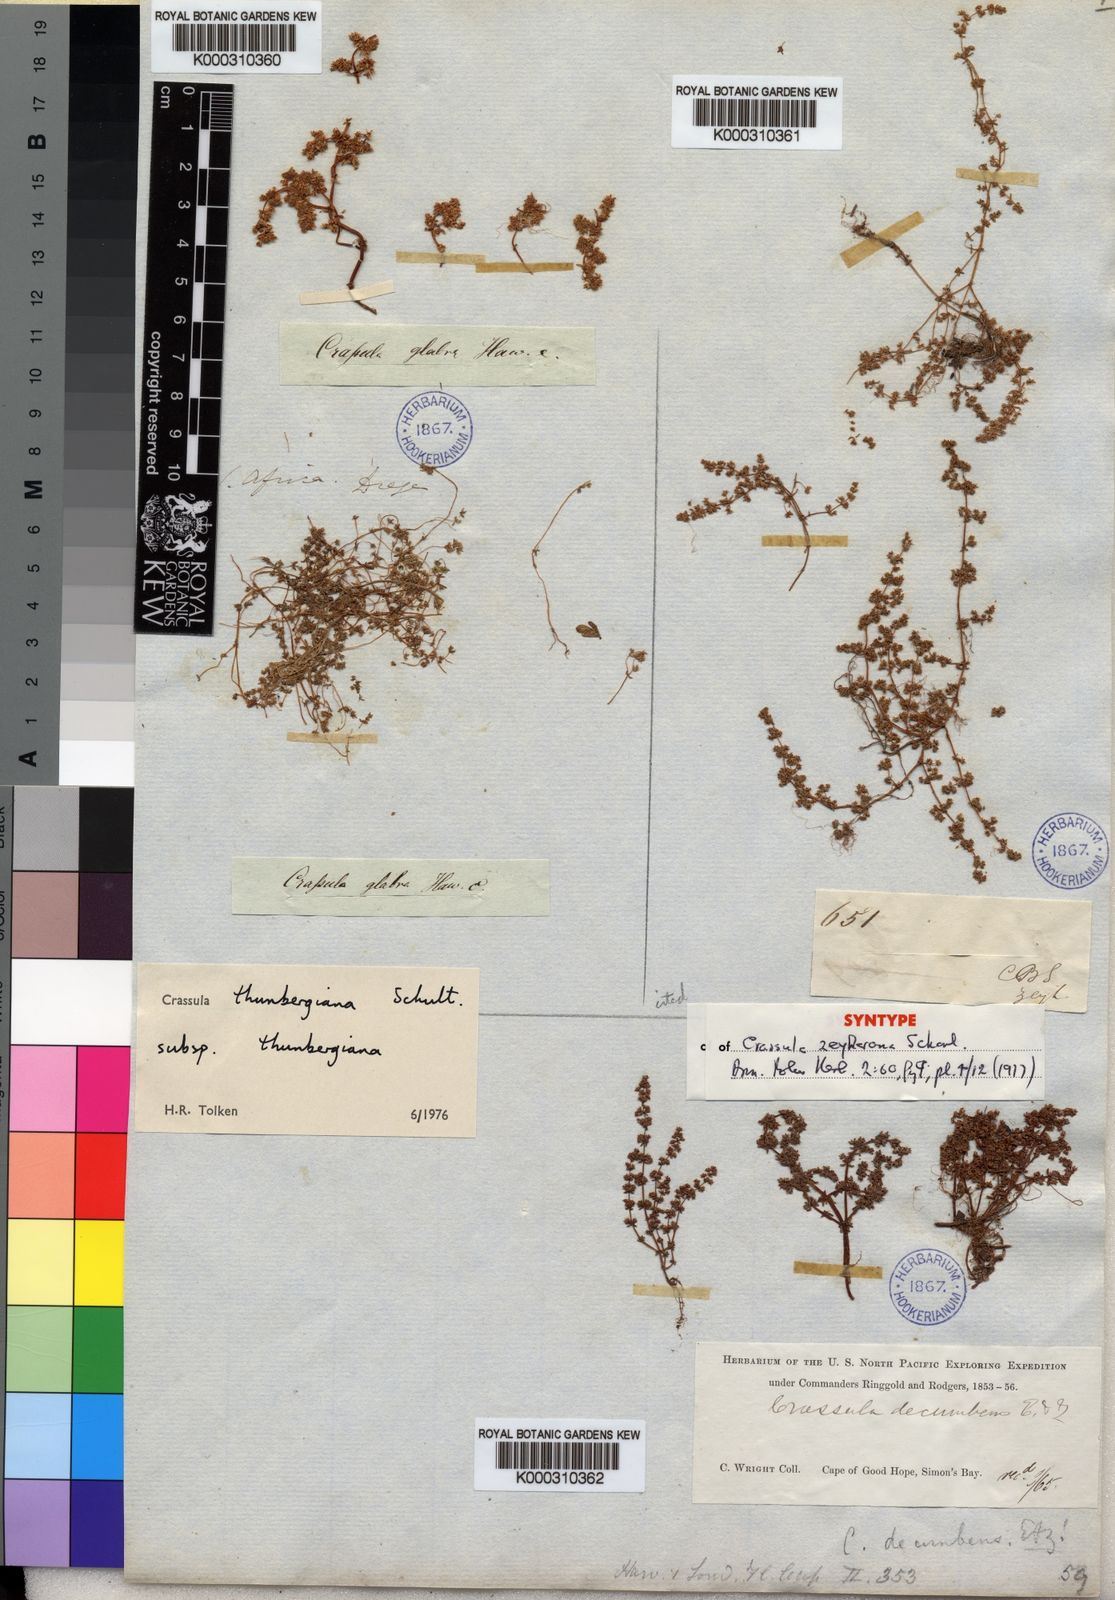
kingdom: Plantae
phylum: Tracheophyta
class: Magnoliopsida
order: Saxifragales
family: Crassulaceae
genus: Crassula
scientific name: Crassula thunbergiana
